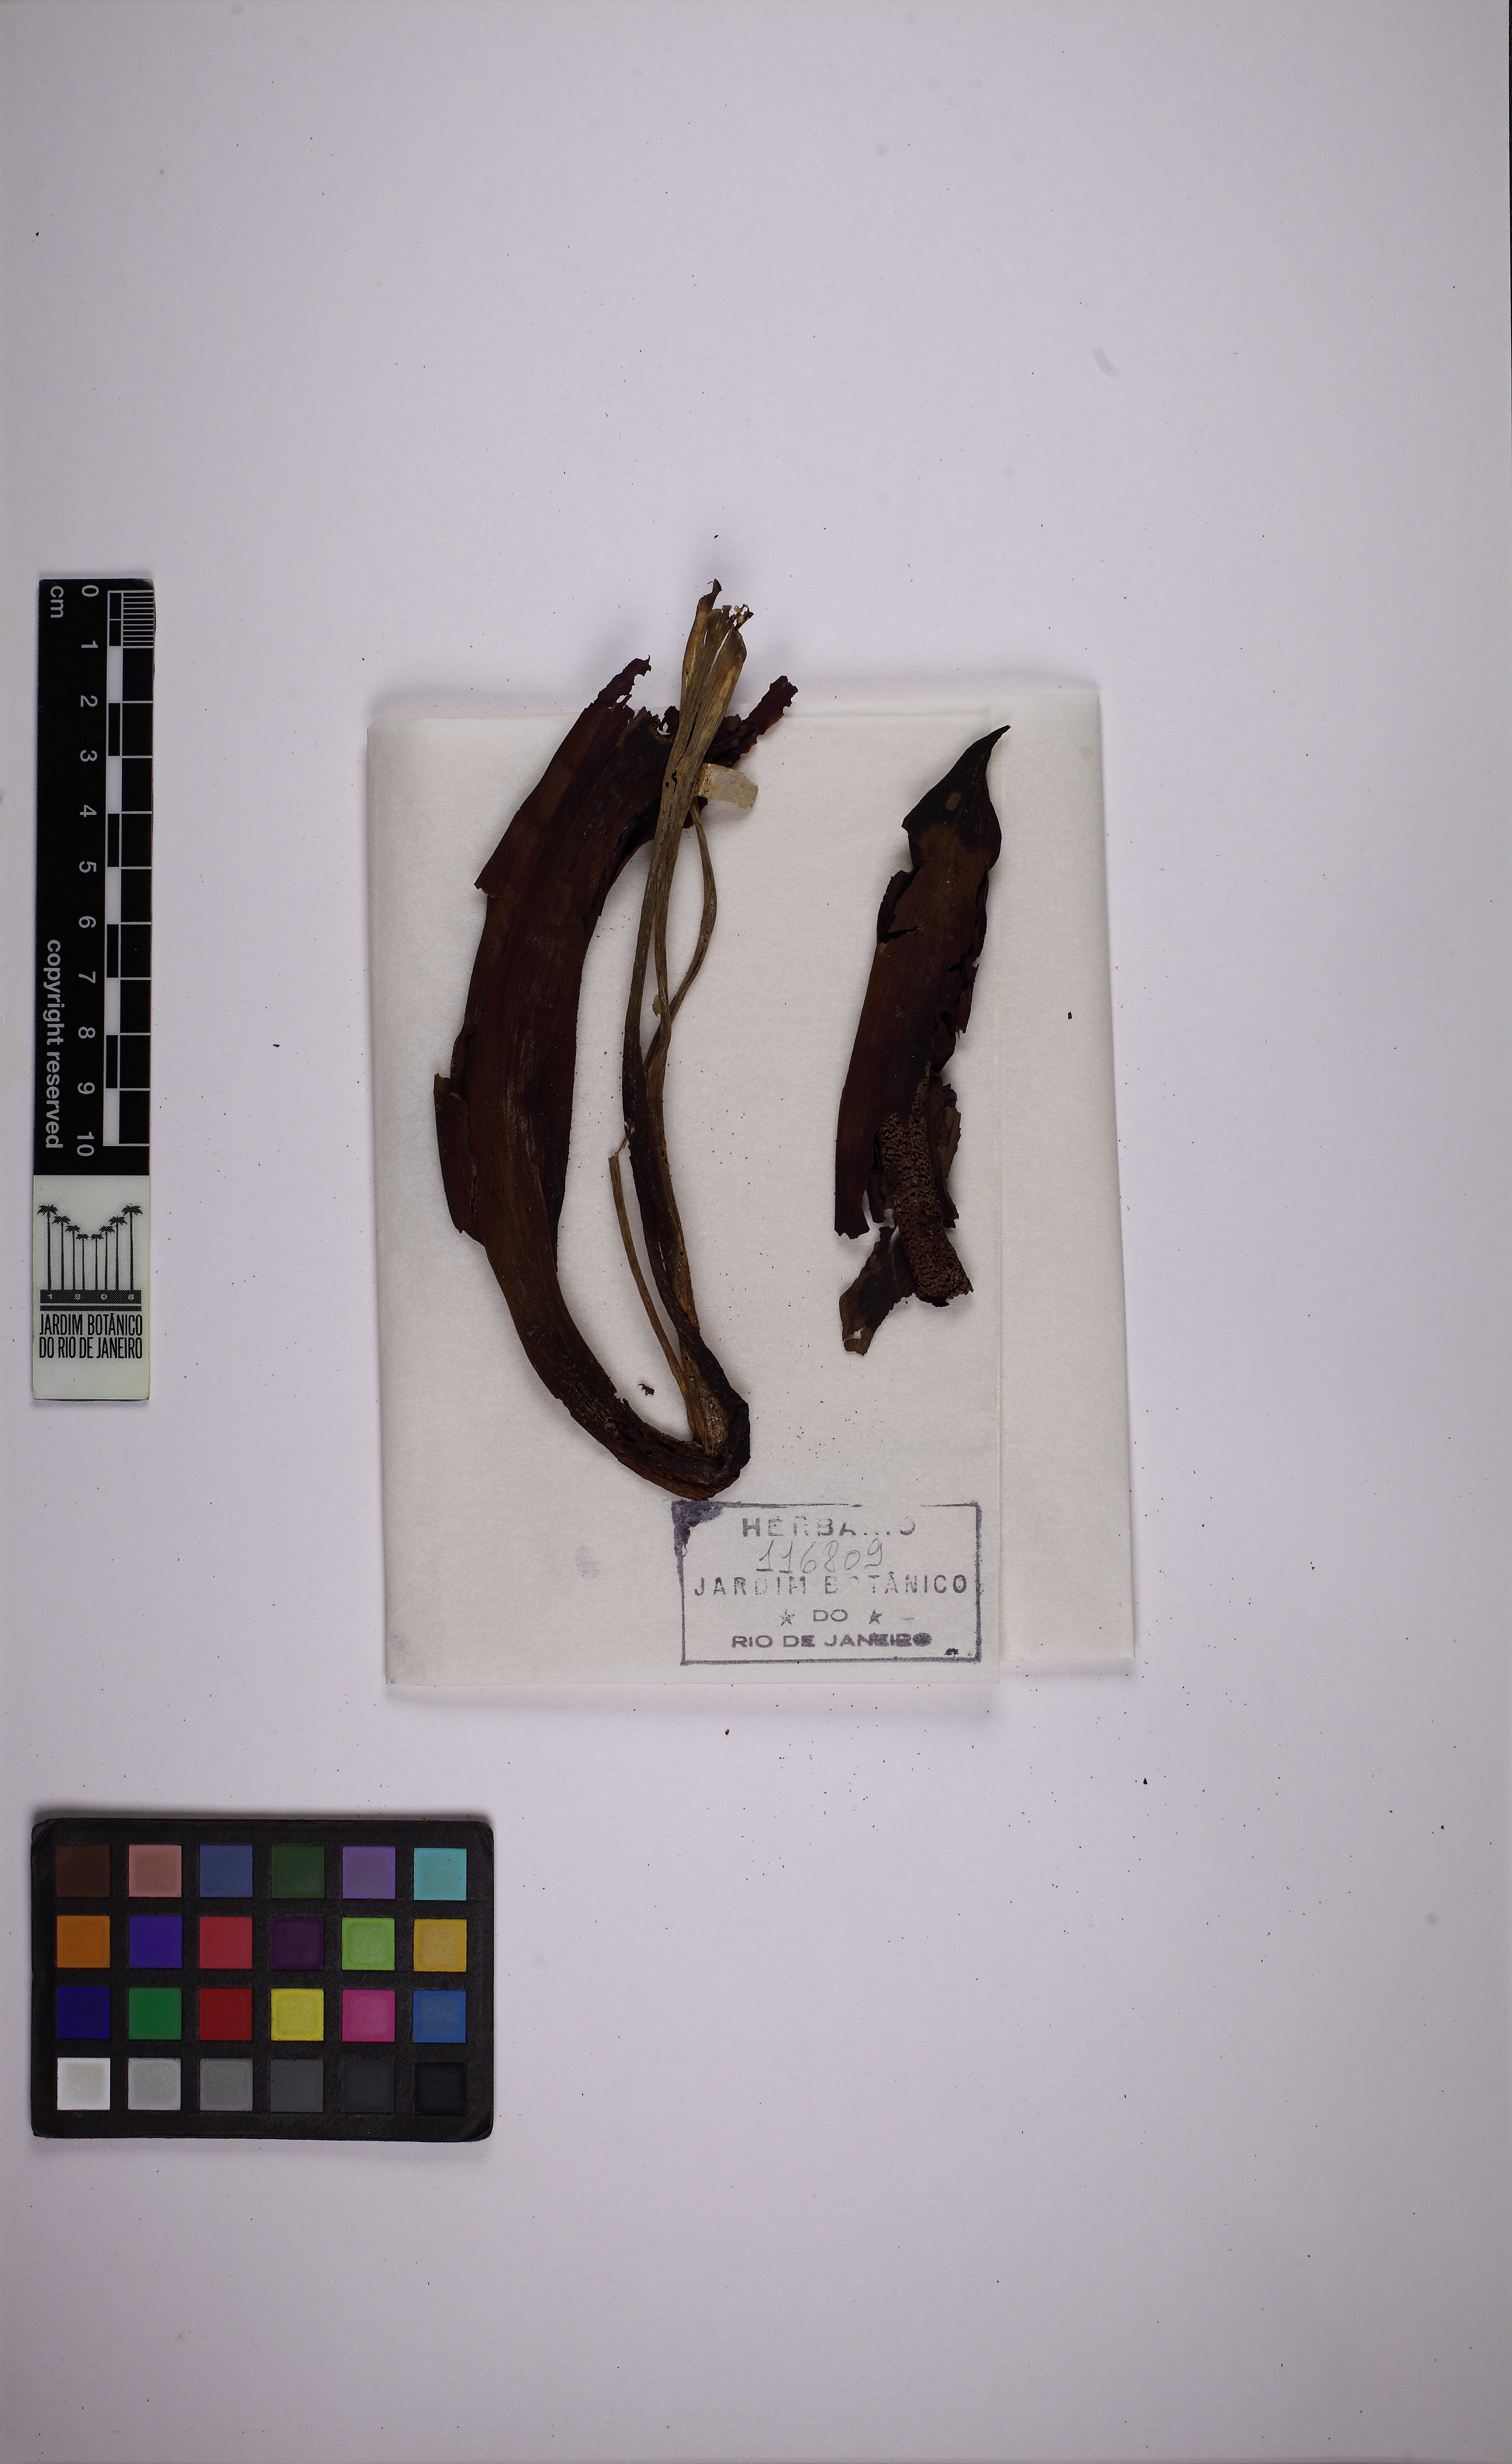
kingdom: Plantae
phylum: Tracheophyta
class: Liliopsida
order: Alismatales
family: Araceae
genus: Philodendron
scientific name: Philodendron renauxii
